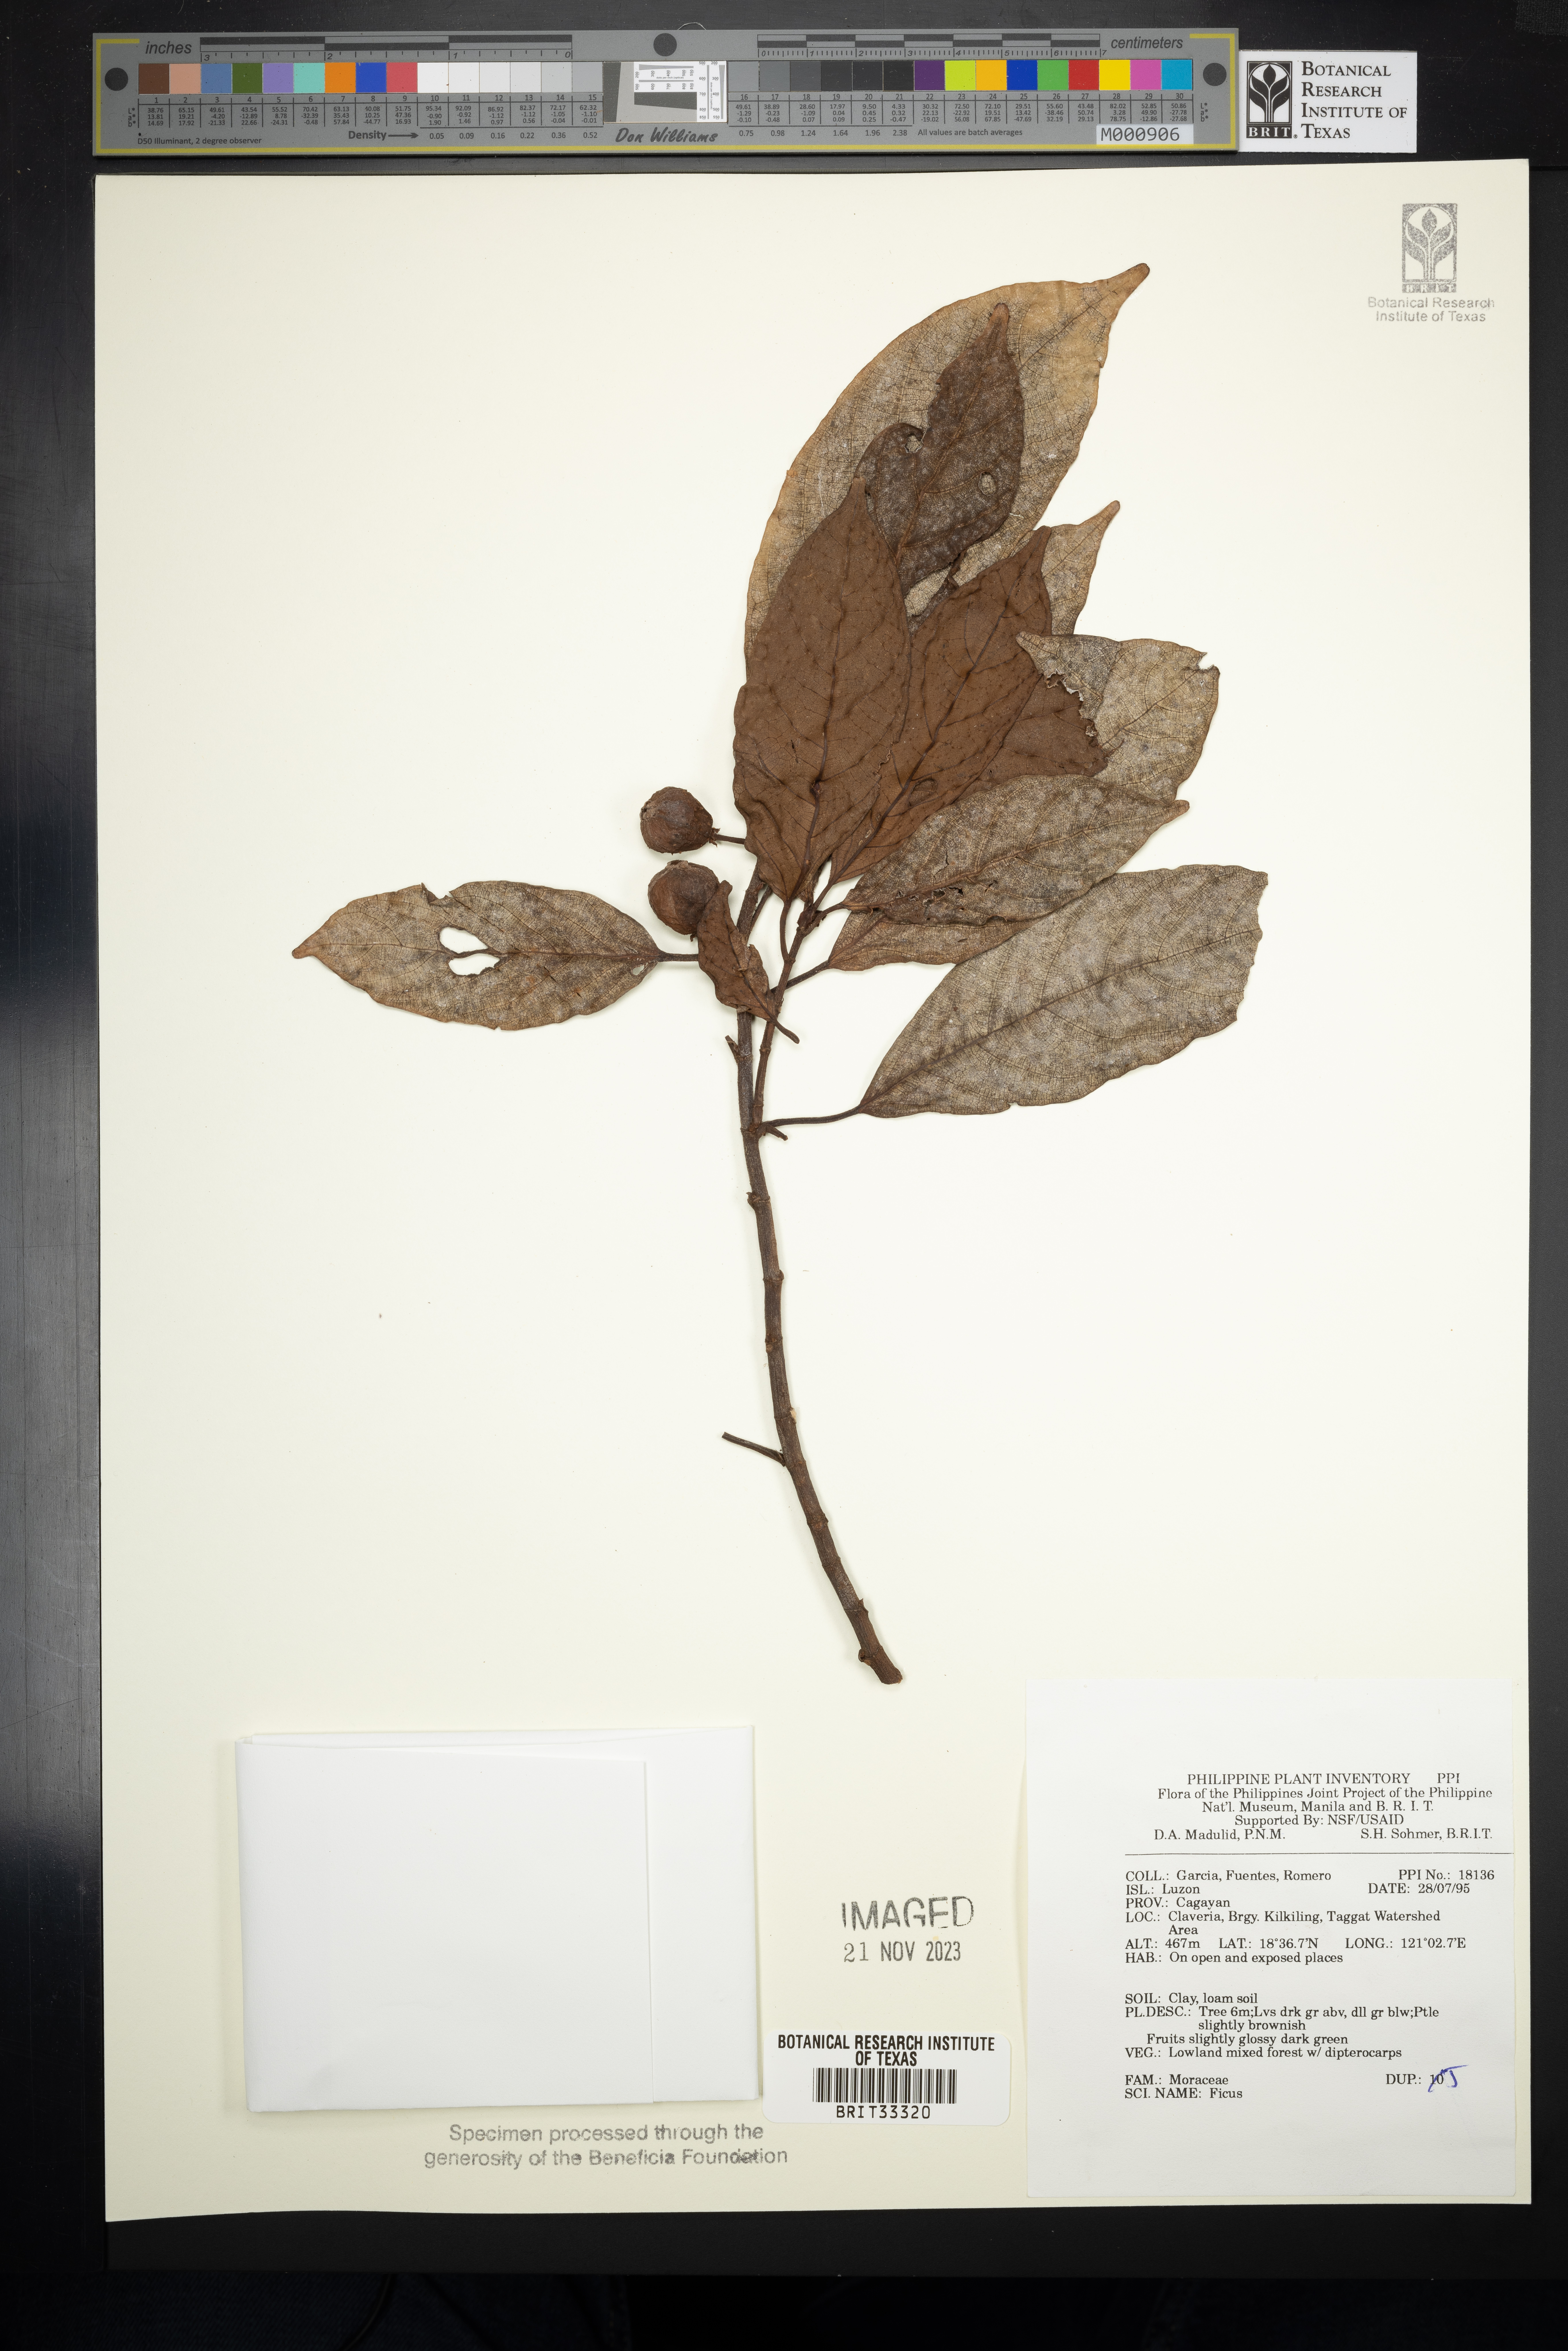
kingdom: Plantae
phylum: Tracheophyta
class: Magnoliopsida
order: Rosales
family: Moraceae
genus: Ficus
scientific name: Ficus
